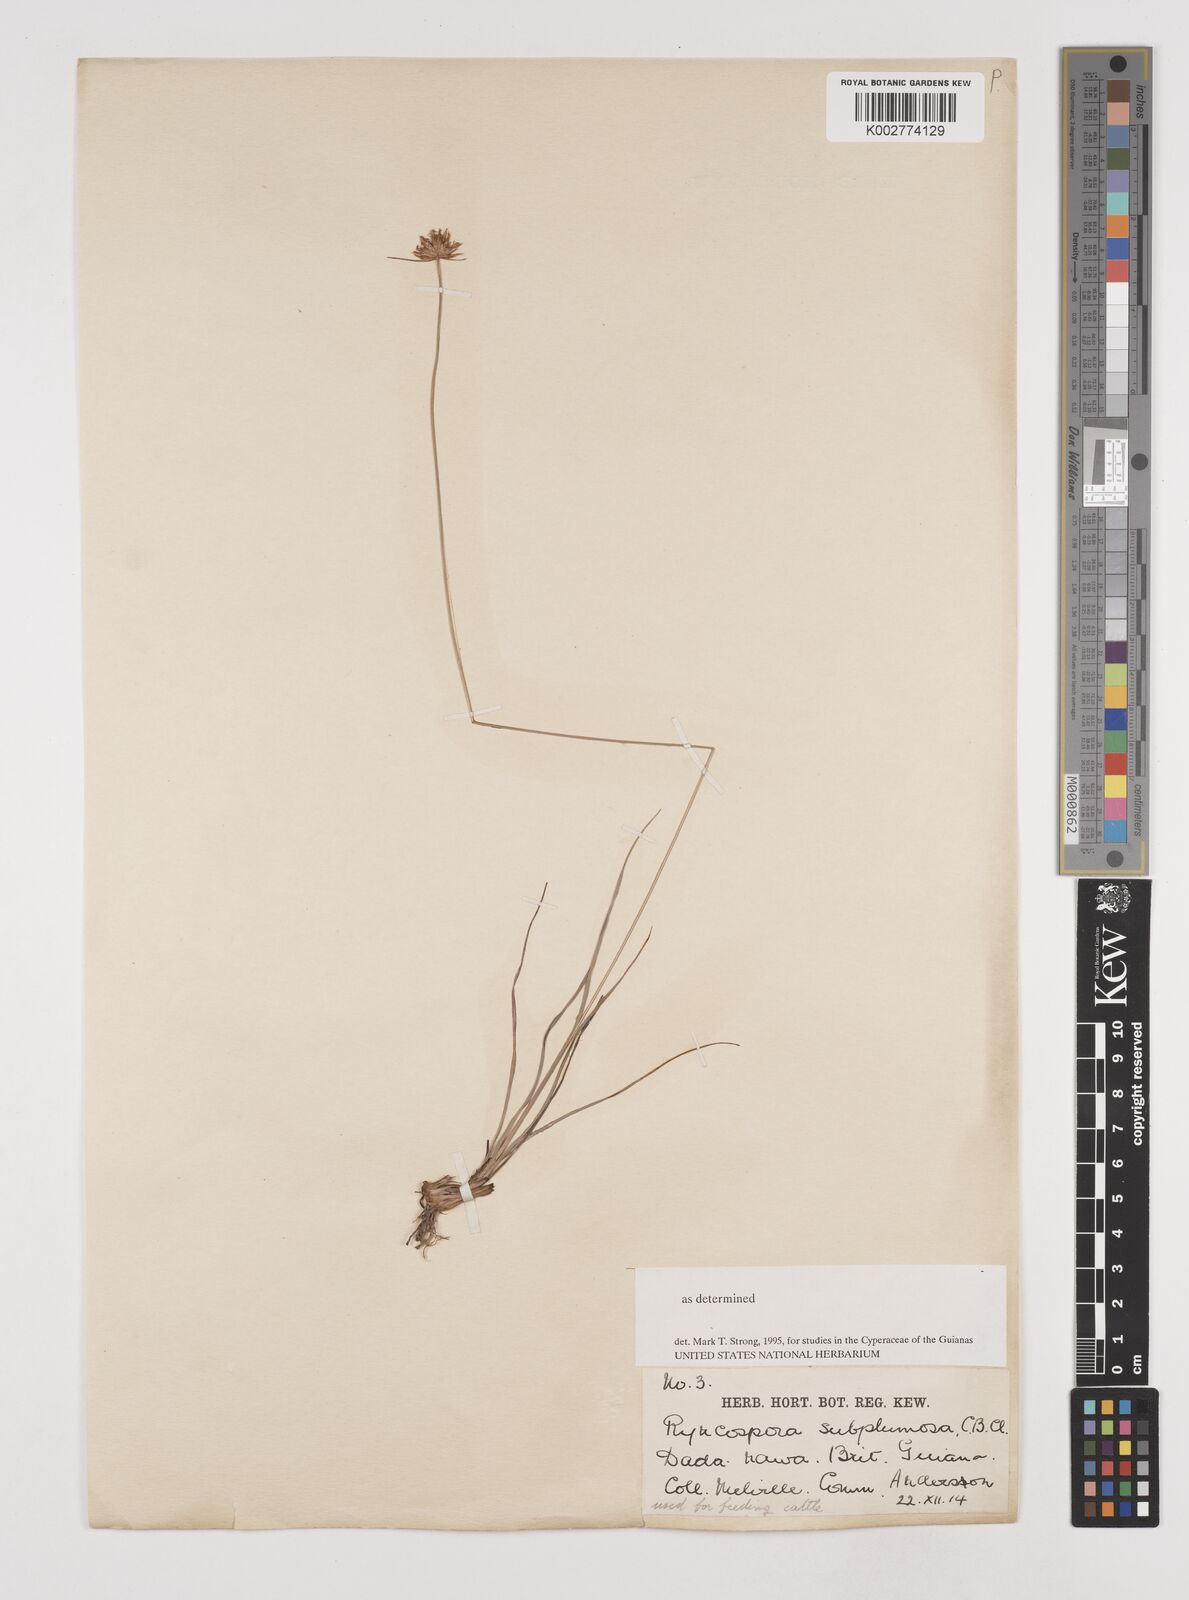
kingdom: Plantae
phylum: Tracheophyta
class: Liliopsida
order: Poales
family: Cyperaceae
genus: Rhynchospora
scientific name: Rhynchospora subplumosa
